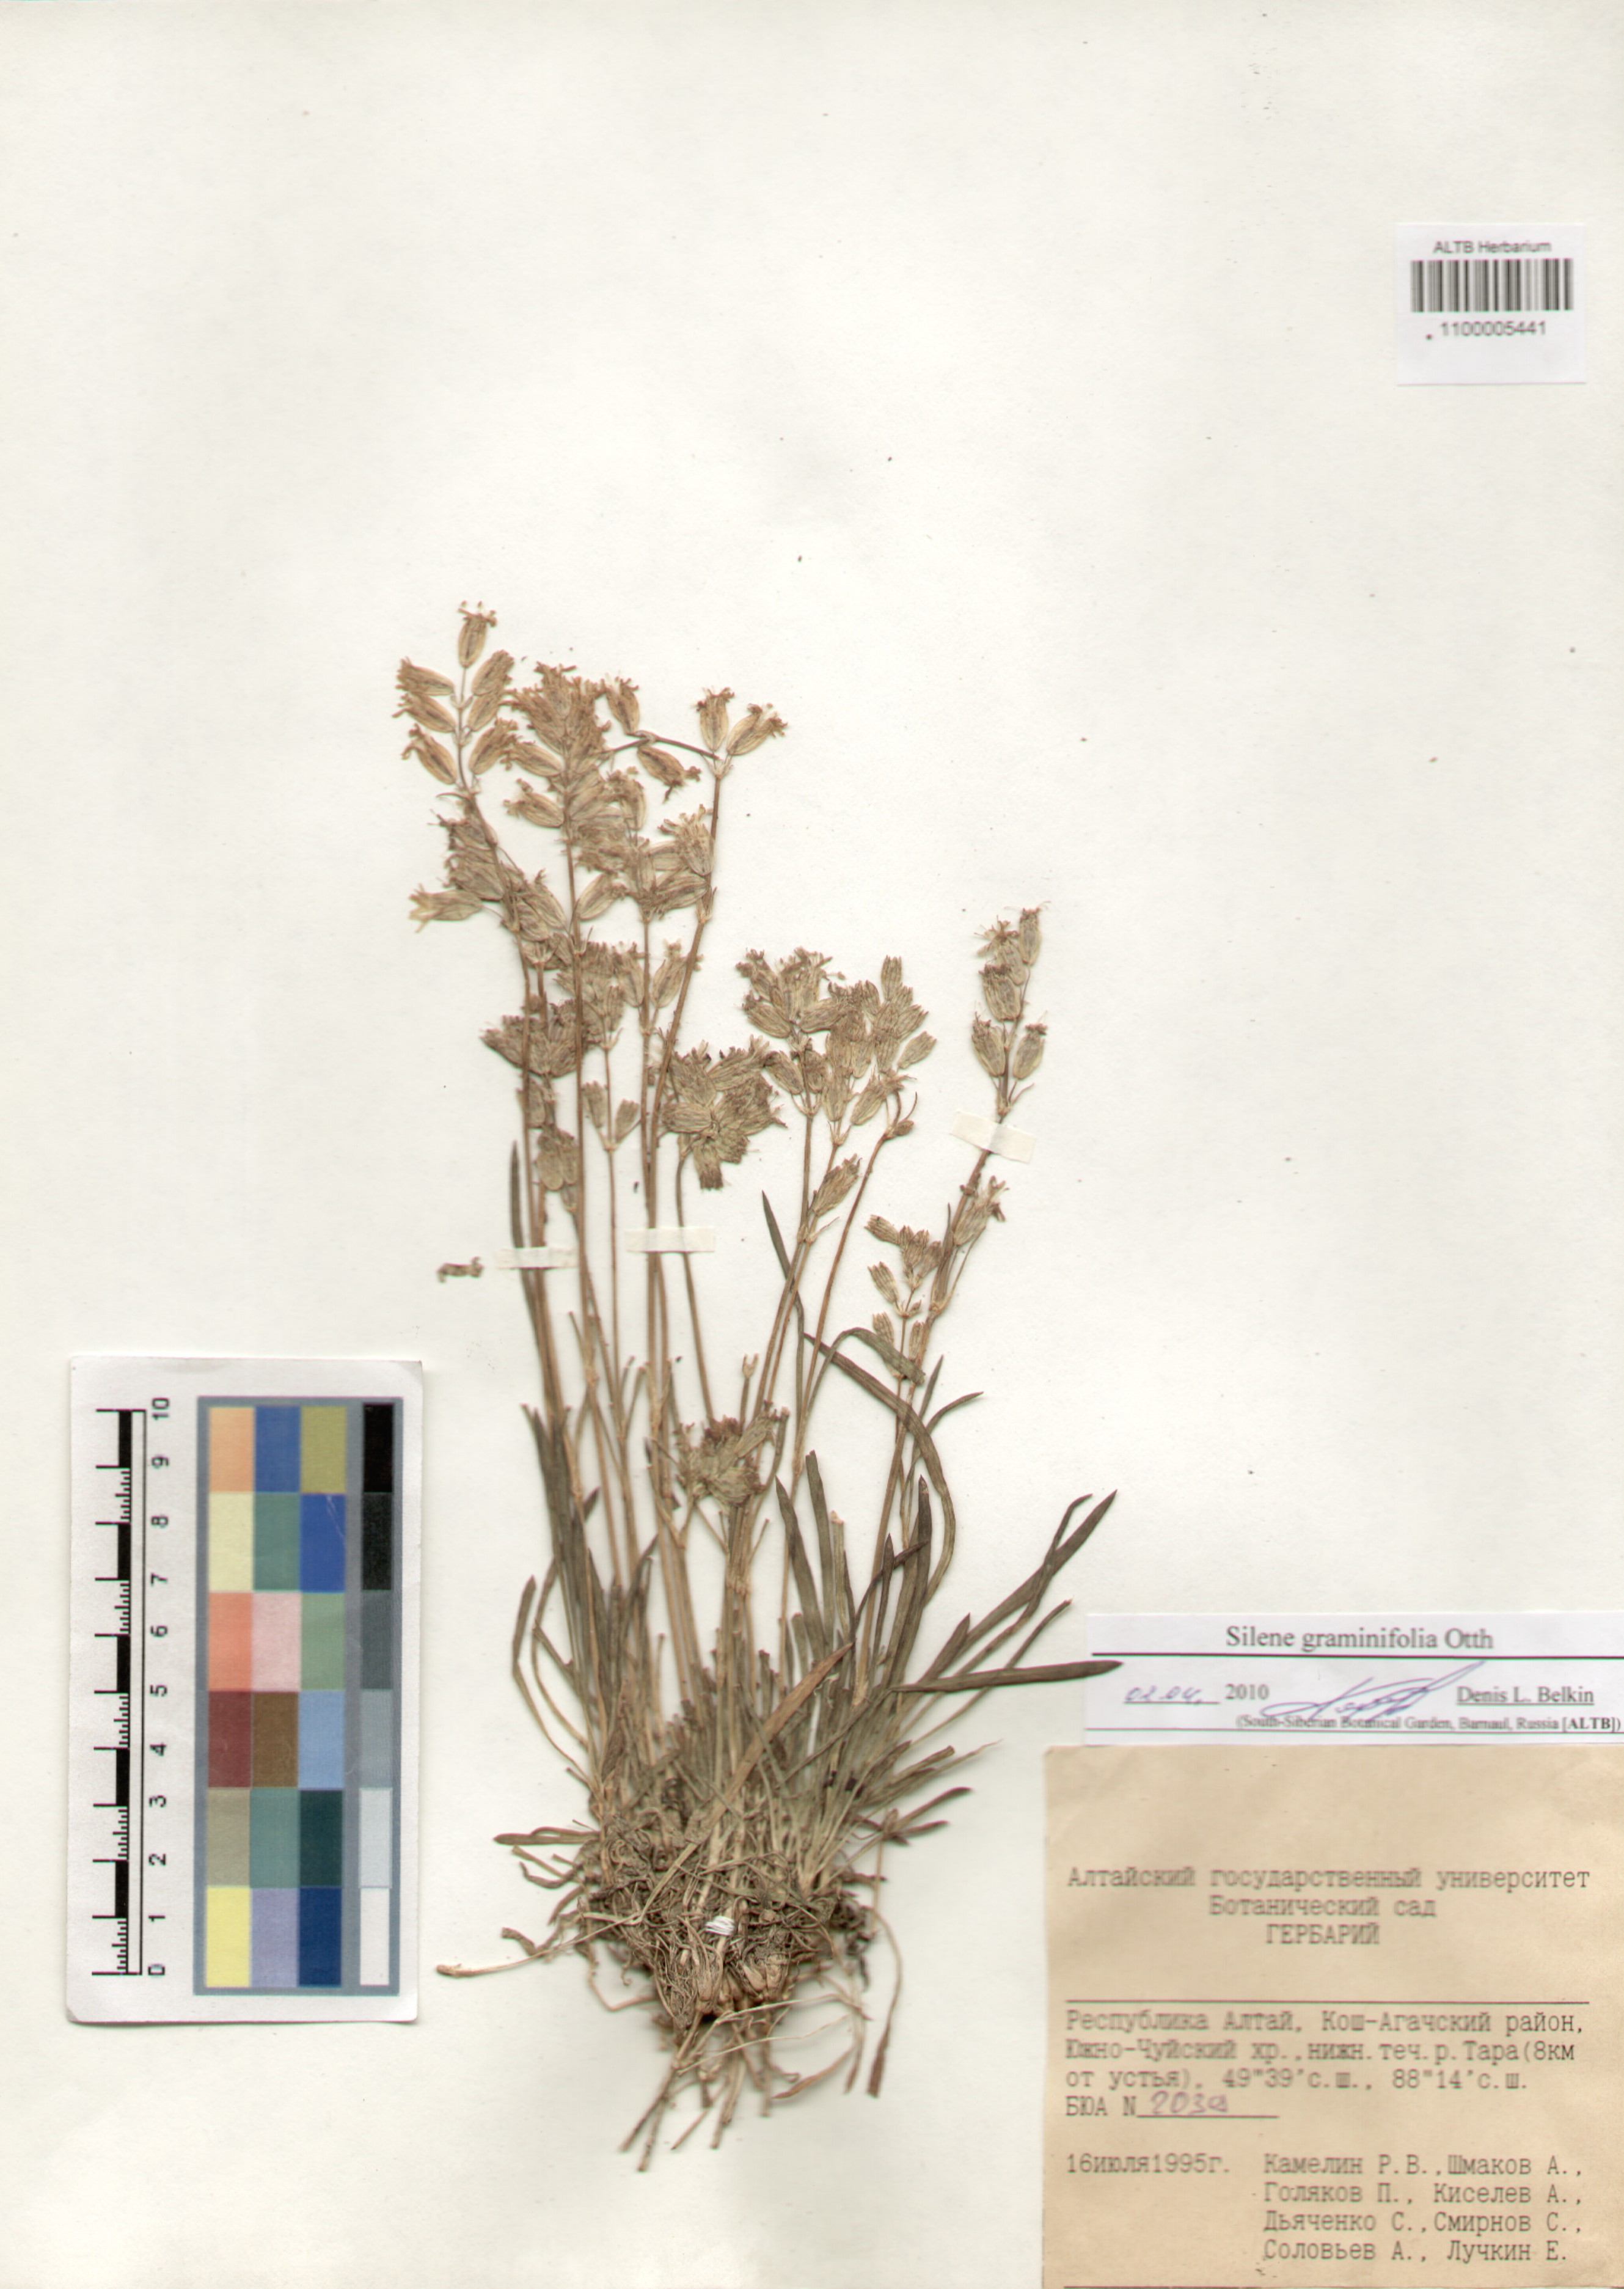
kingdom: Plantae
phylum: Tracheophyta
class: Magnoliopsida
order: Caryophyllales
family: Caryophyllaceae
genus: Silene
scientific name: Silene graminifolia
